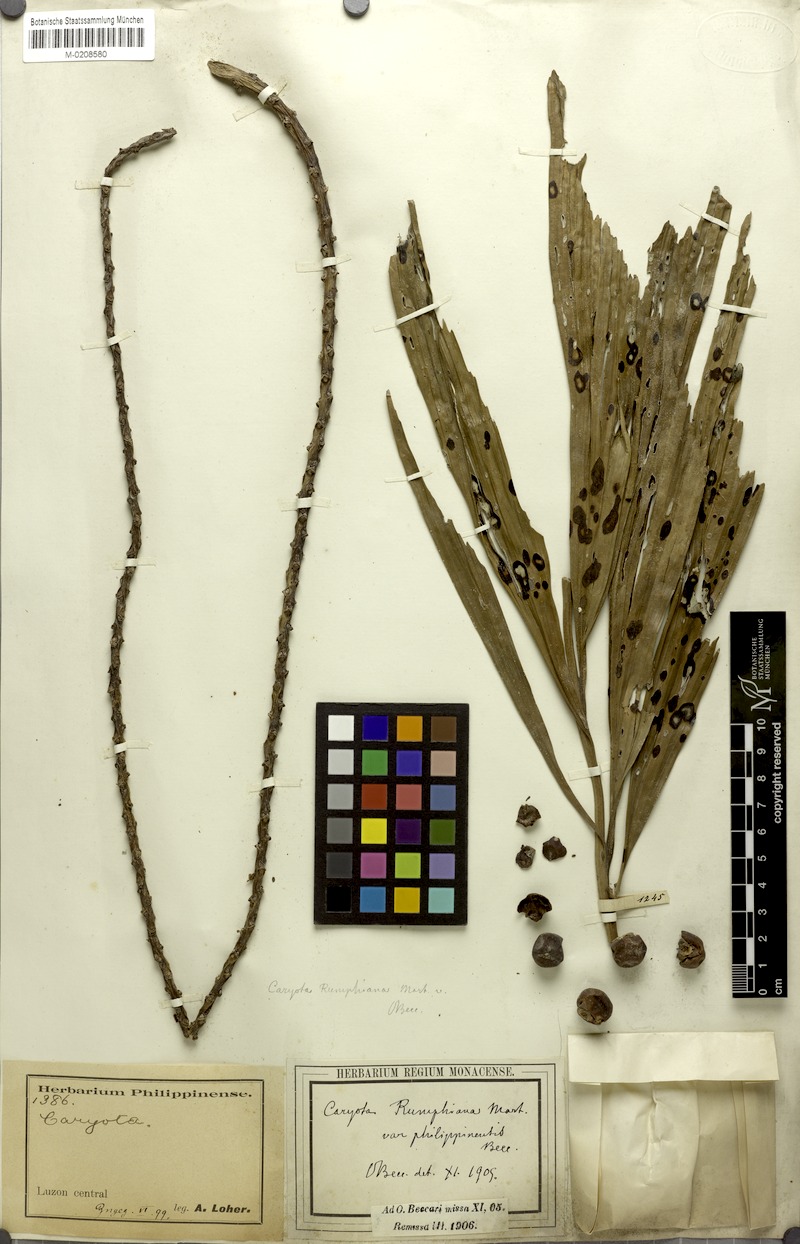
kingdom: Plantae
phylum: Tracheophyta
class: Liliopsida
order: Arecales
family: Arecaceae
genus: Caryota
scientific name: Caryota mitis
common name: Burmese fishtail palm
